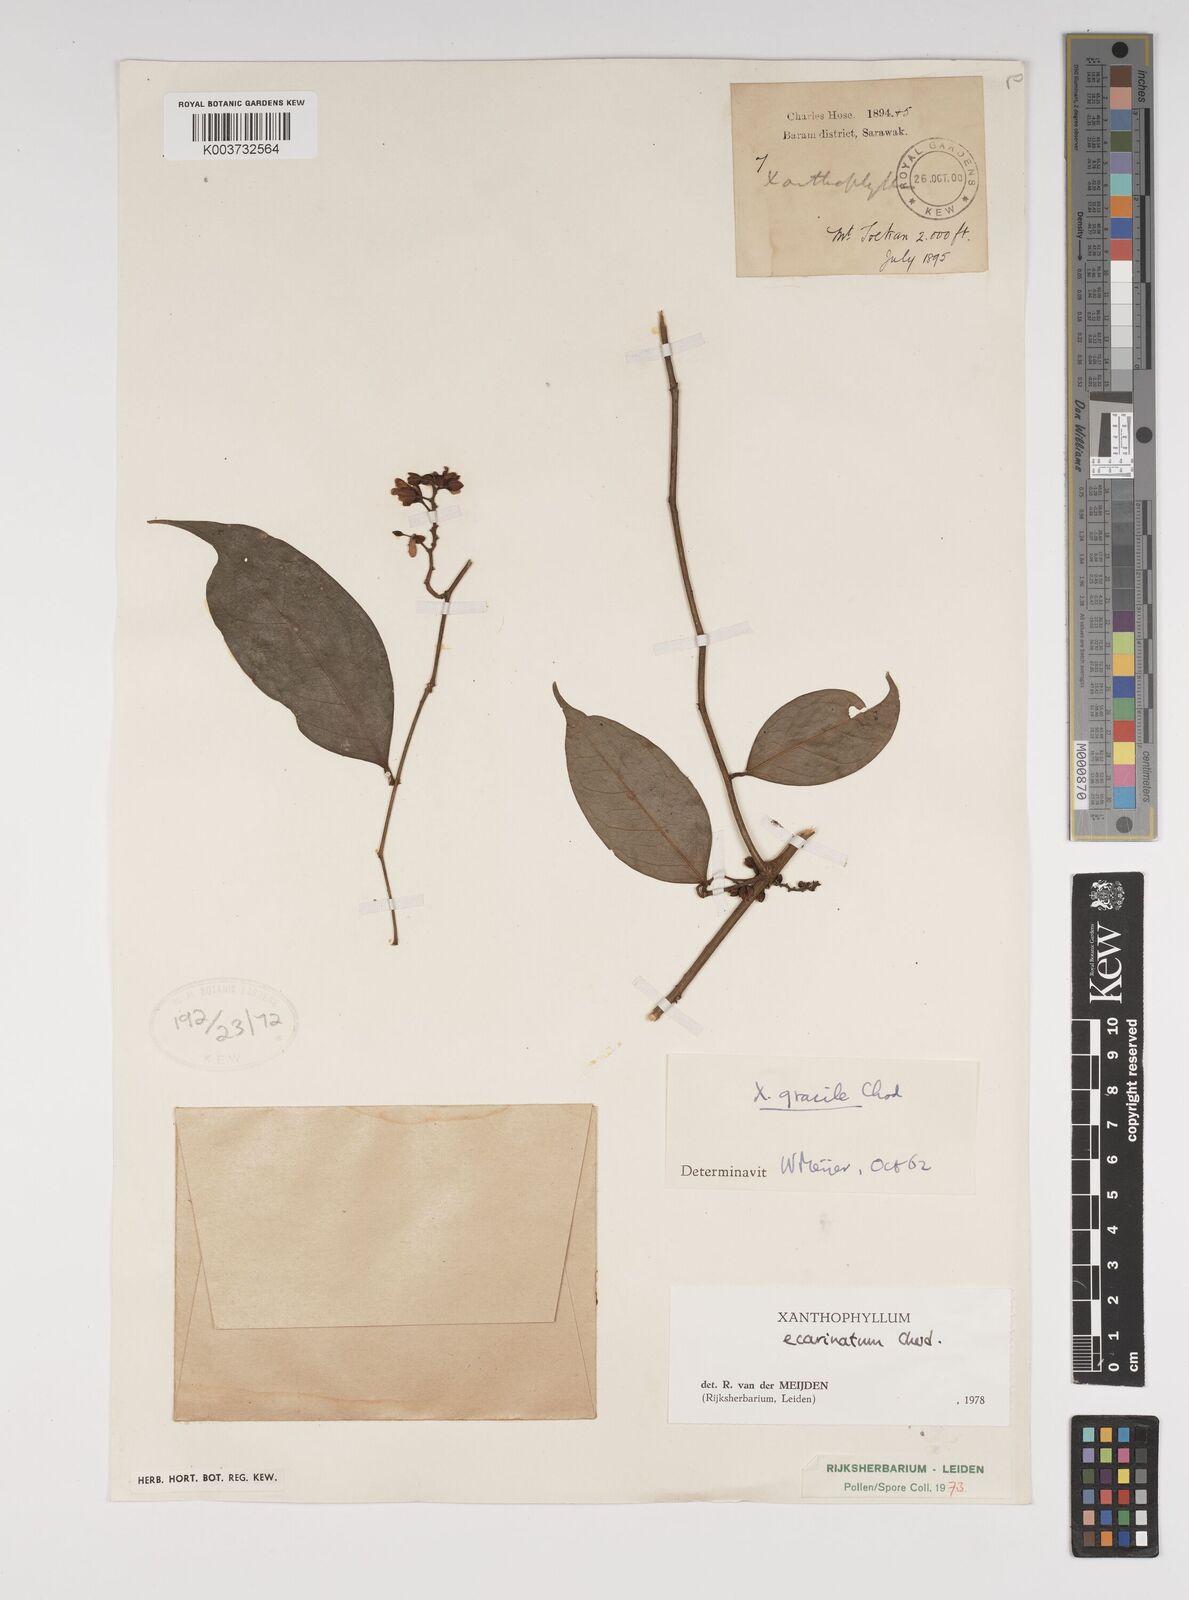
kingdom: Plantae
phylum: Tracheophyta
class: Magnoliopsida
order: Fabales
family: Polygalaceae
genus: Xanthophyllum
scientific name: Xanthophyllum ecarinatum
